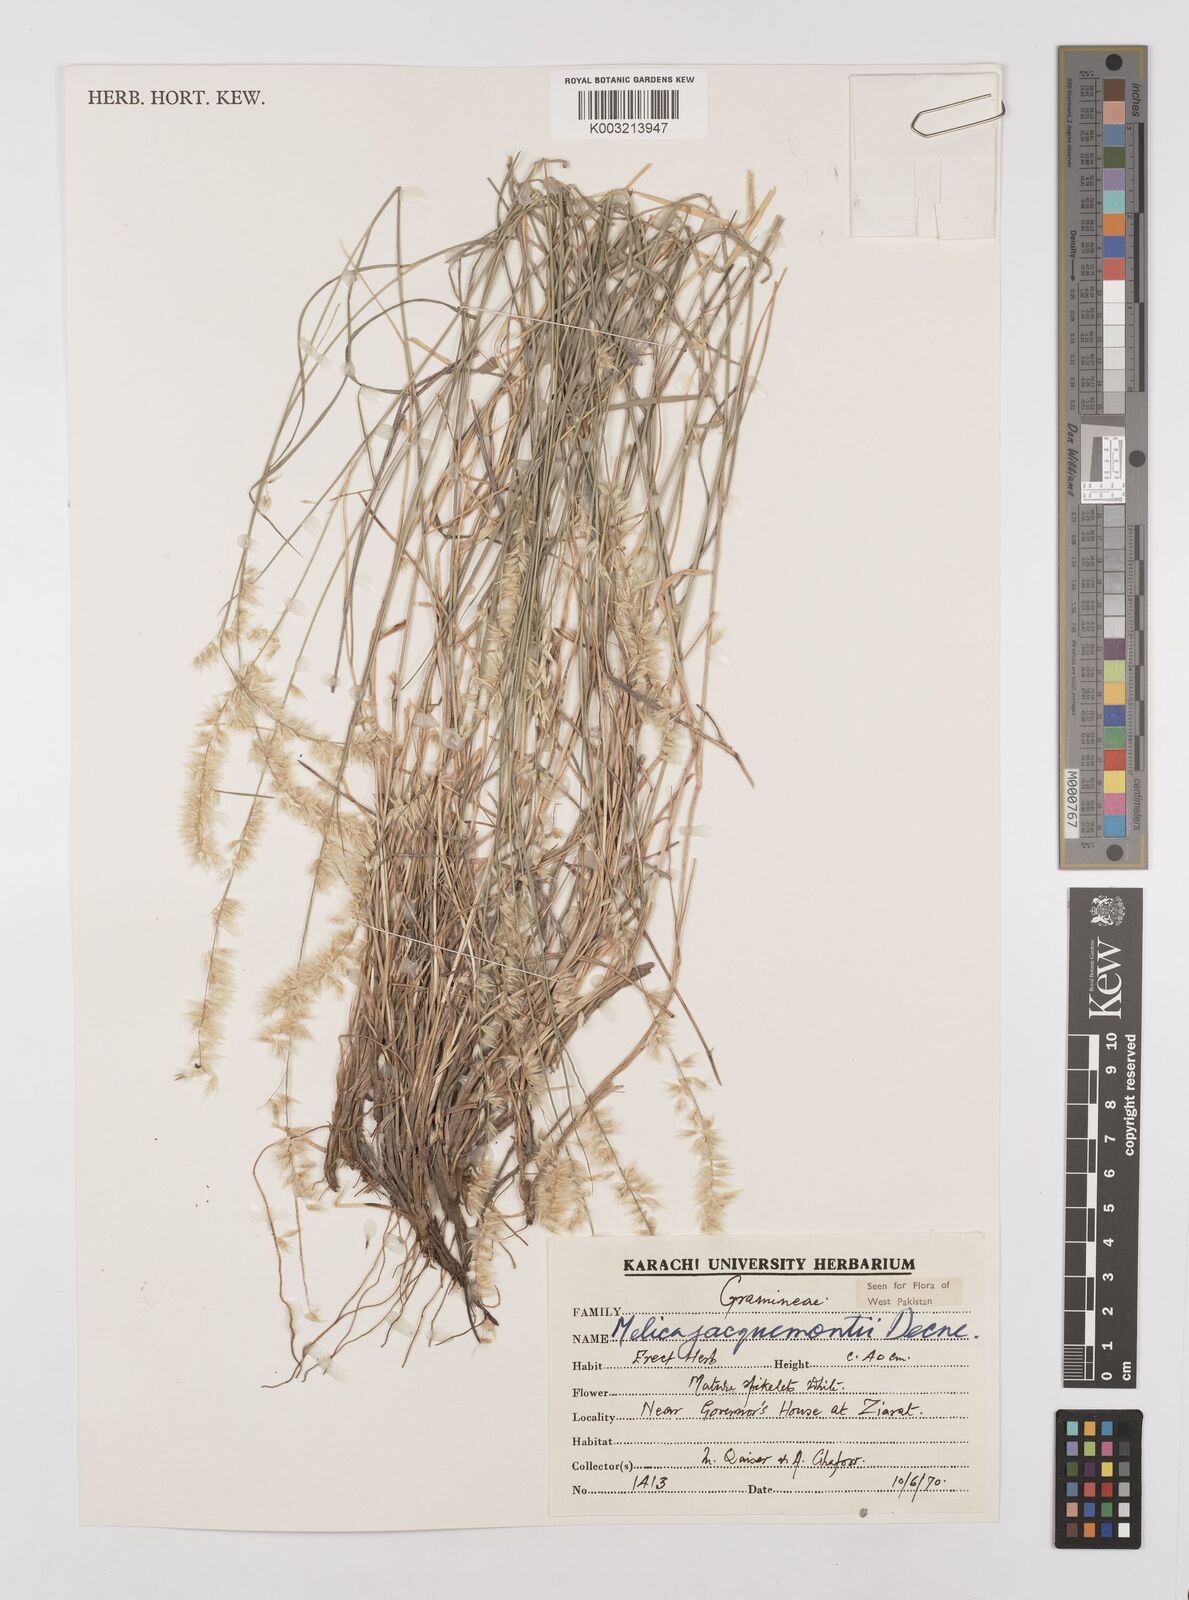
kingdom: Plantae
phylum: Tracheophyta
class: Liliopsida
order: Poales
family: Poaceae
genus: Melica
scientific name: Melica persica
